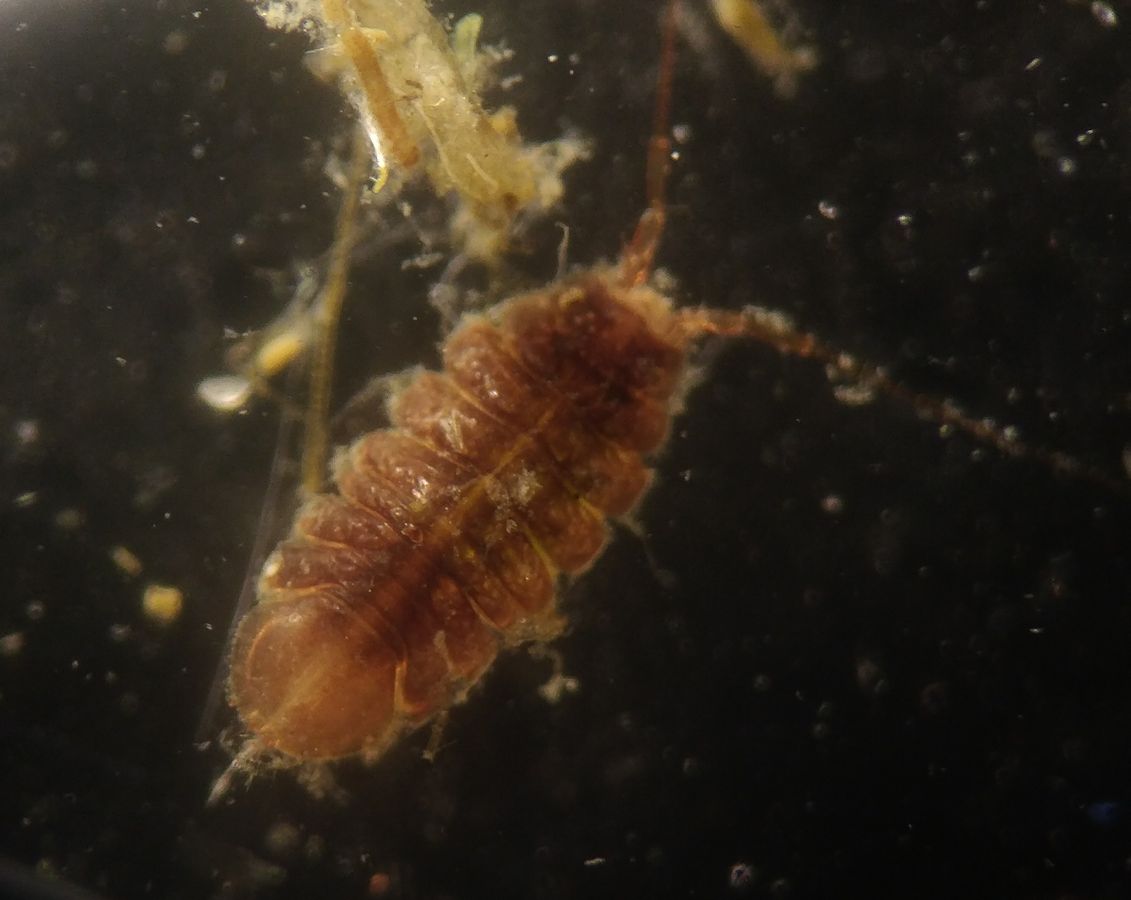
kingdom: Animalia
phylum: Arthropoda
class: Malacostraca
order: Isopoda
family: Janiridae
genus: Jaera
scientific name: Jaera albifrons
